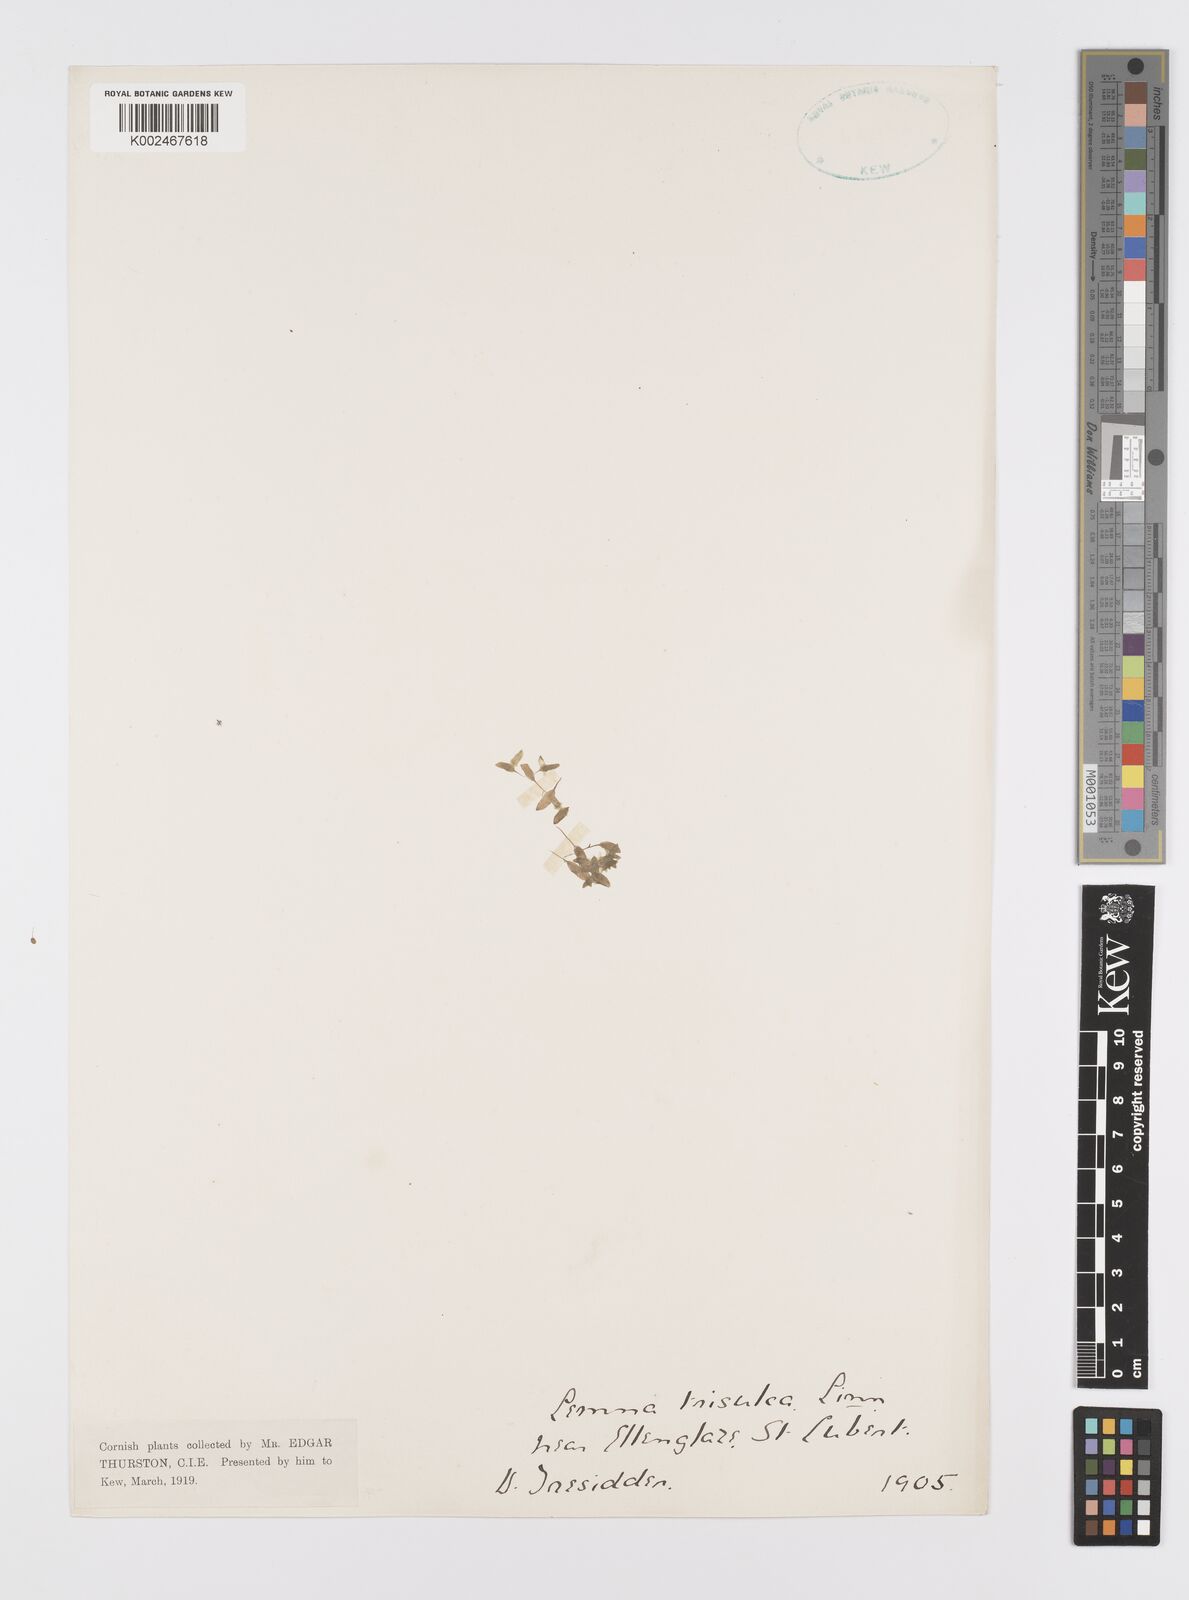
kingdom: Plantae
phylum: Tracheophyta
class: Liliopsida
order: Alismatales
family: Araceae
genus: Lemna
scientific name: Lemna trisulca
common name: Ivy-leaved duckweed
